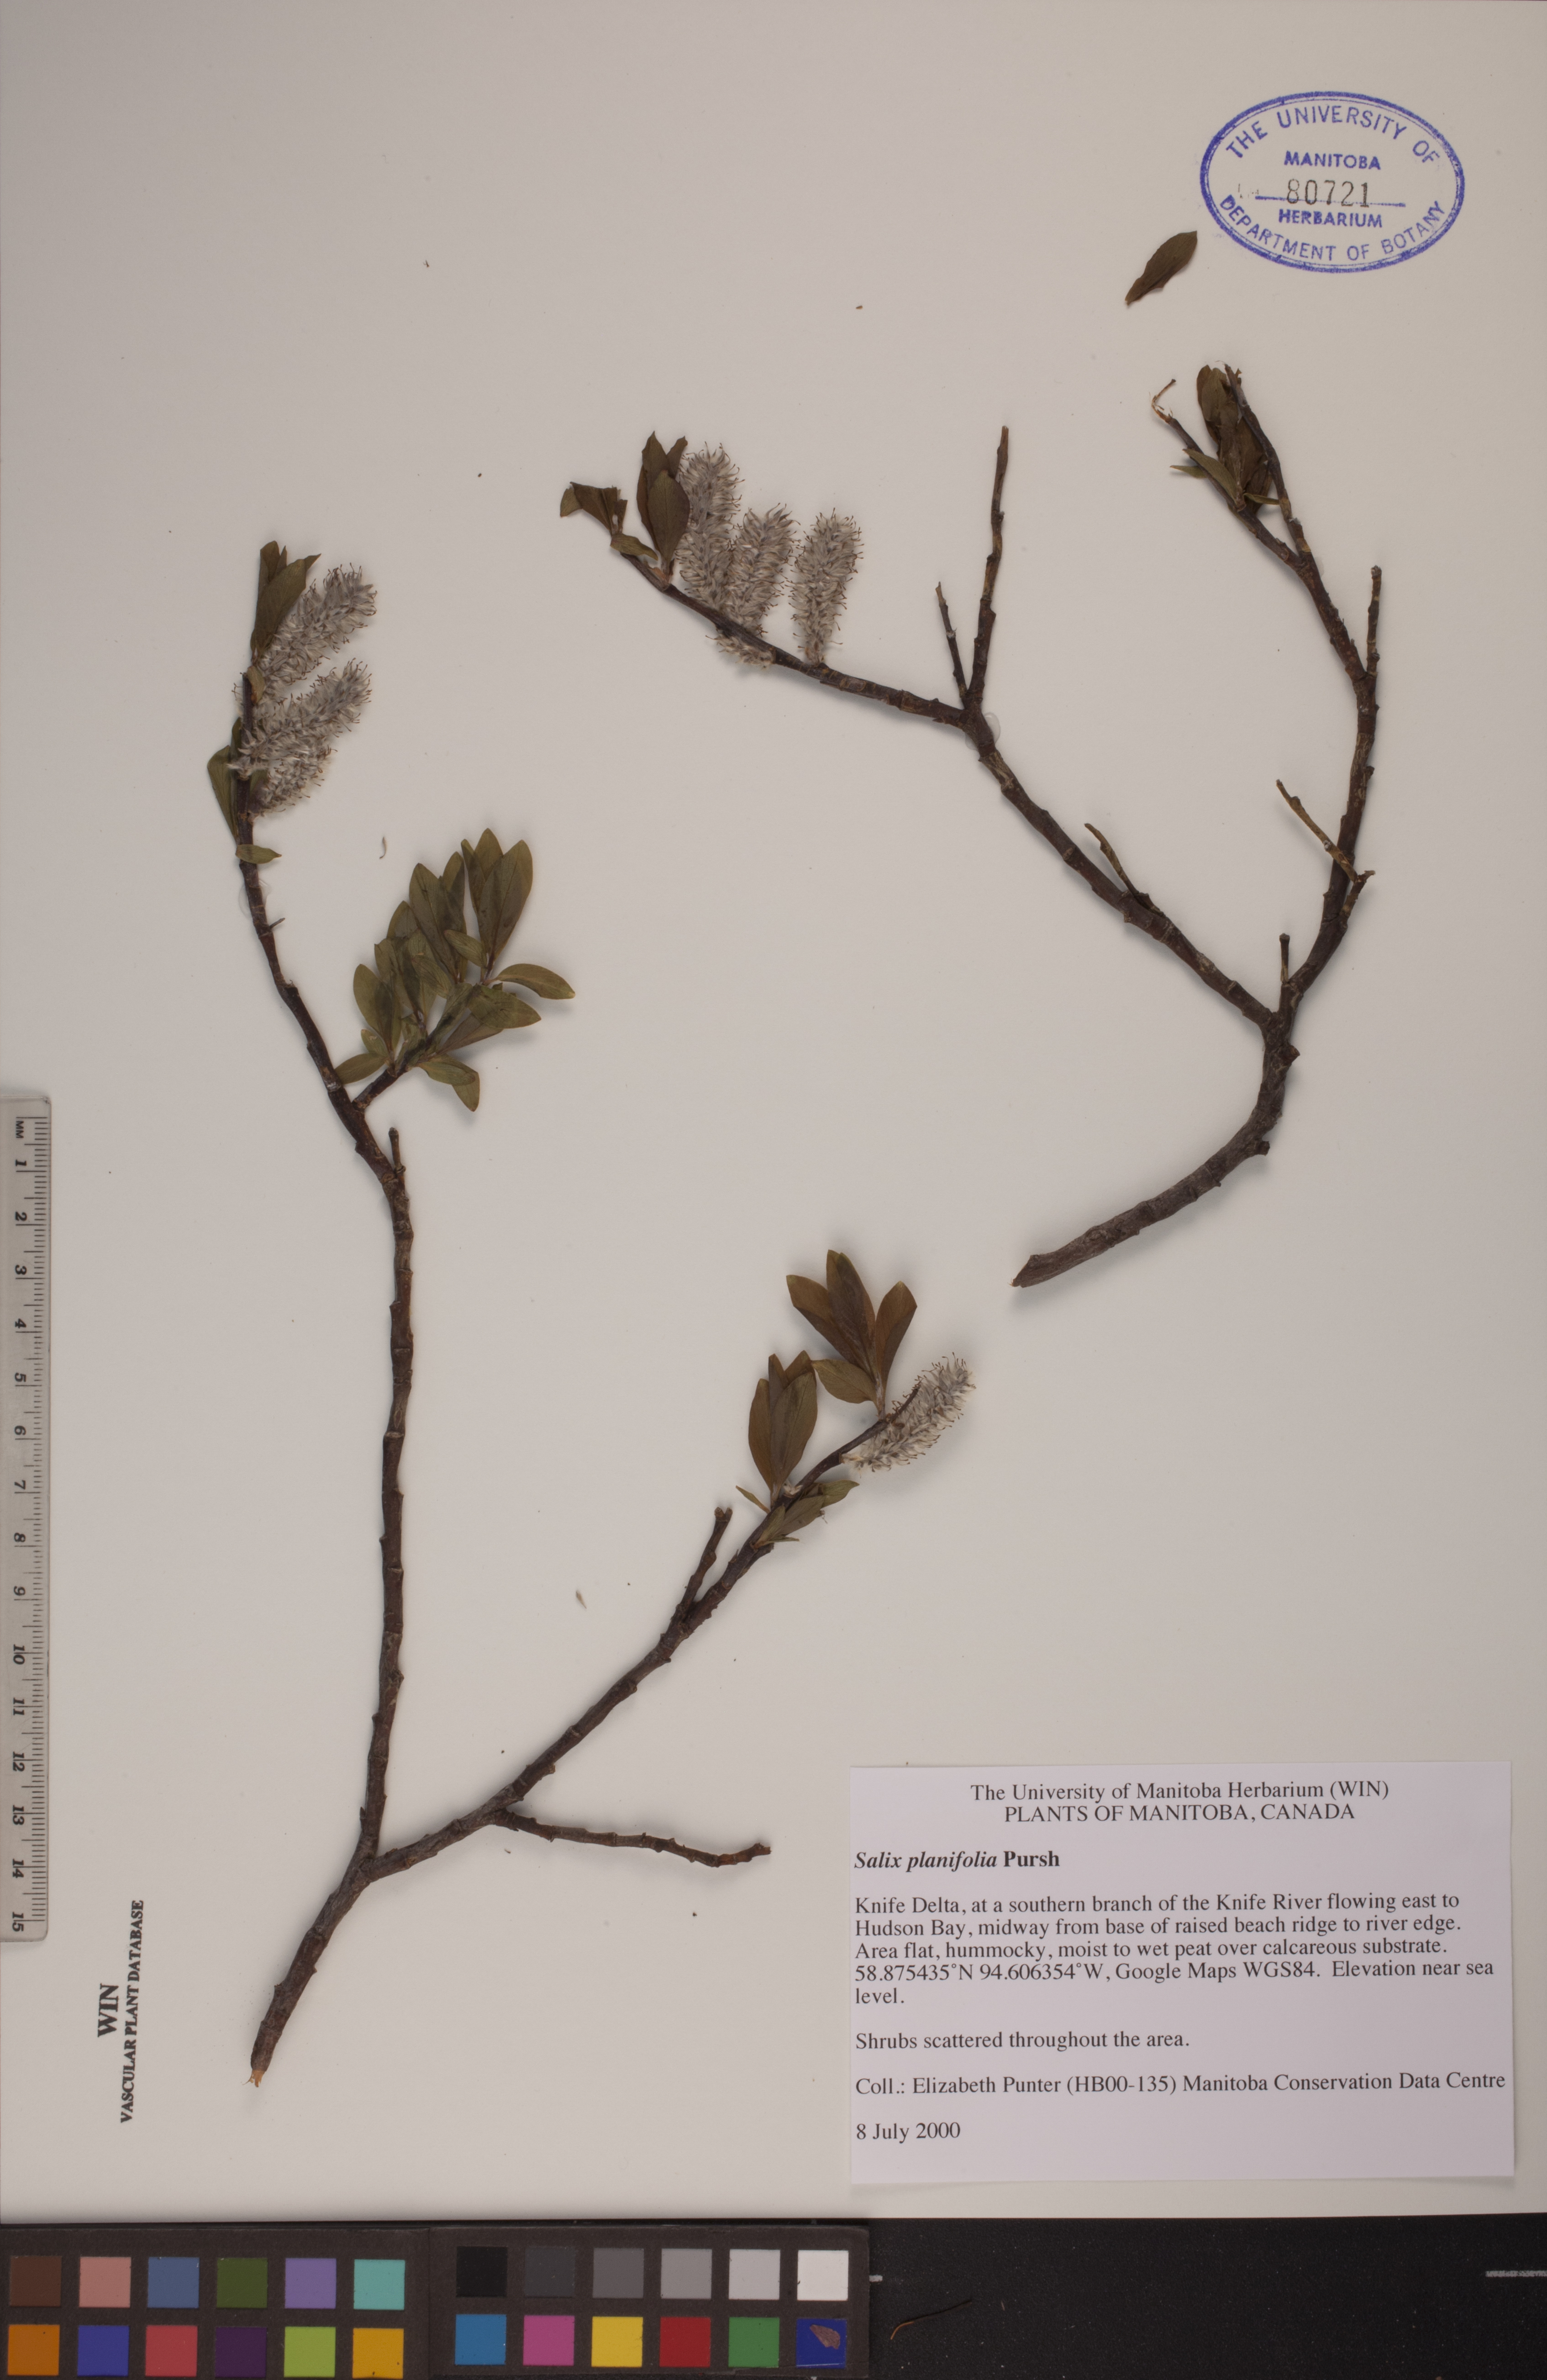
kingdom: Plantae
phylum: Tracheophyta
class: Magnoliopsida
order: Malpighiales
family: Salicaceae
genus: Salix
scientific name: Salix planifolia
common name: Mountain willow
